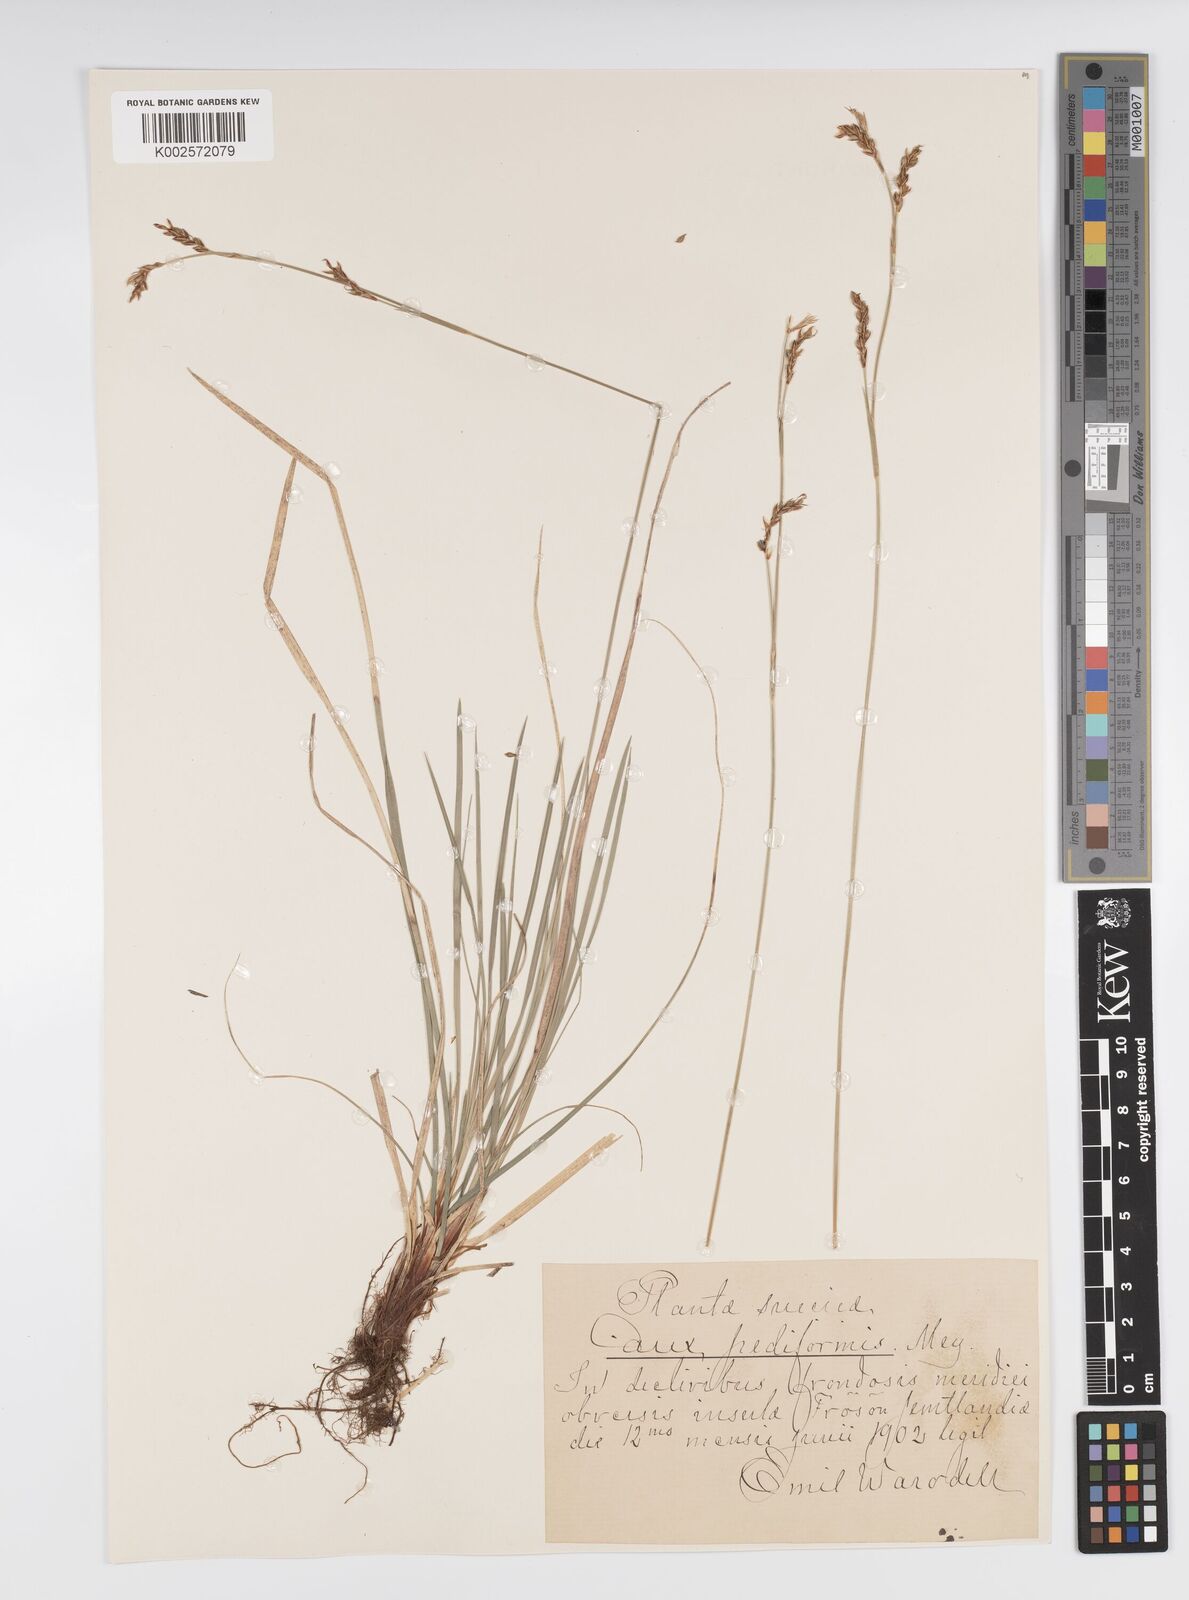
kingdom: Plantae
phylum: Tracheophyta
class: Liliopsida
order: Poales
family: Cyperaceae
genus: Carex
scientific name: Carex pediformis
